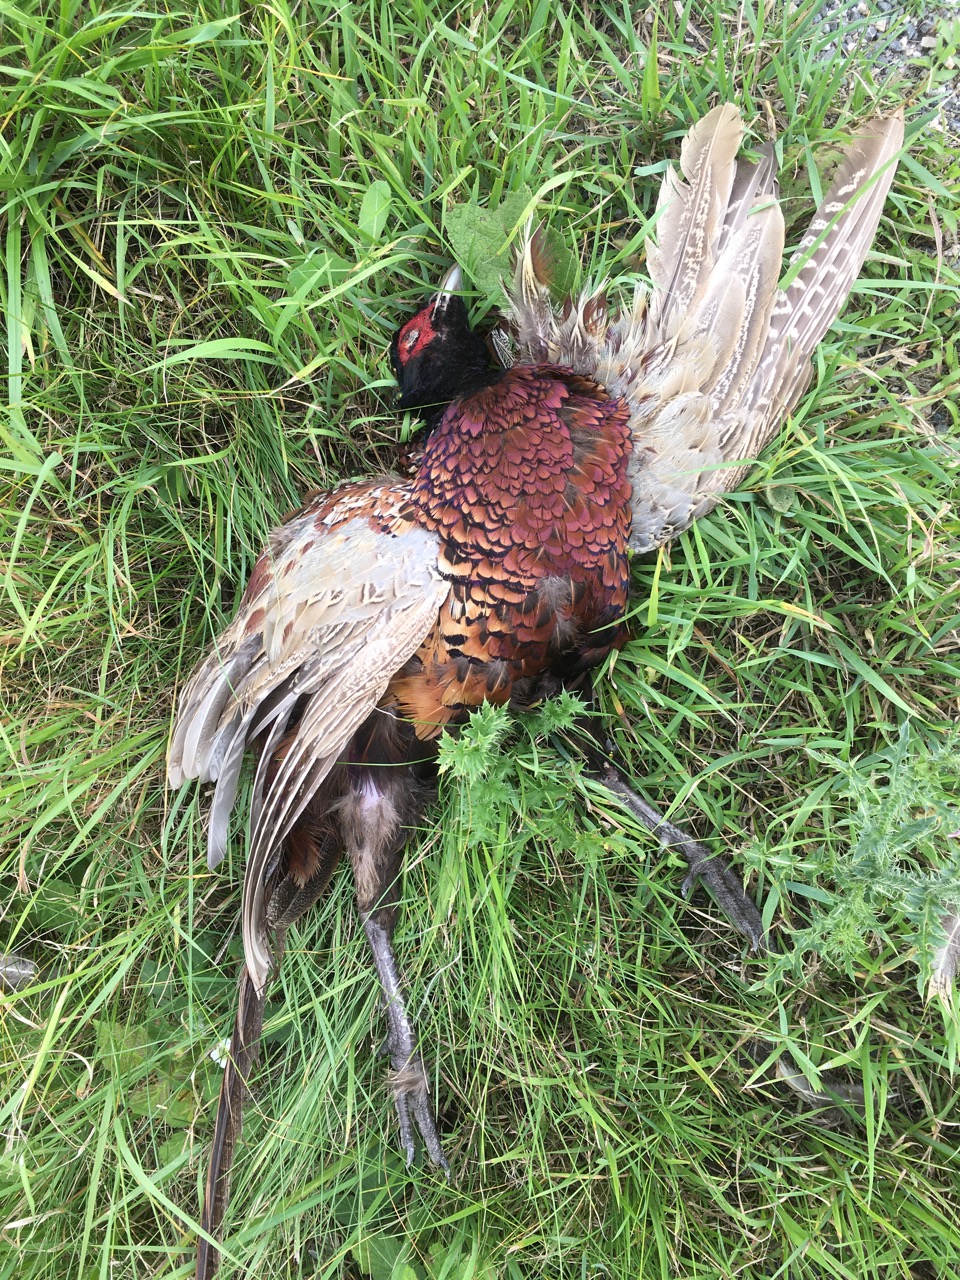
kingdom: Animalia
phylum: Chordata
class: Aves
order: Galliformes
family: Phasianidae
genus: Phasianus
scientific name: Phasianus colchicus
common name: Common pheasant
